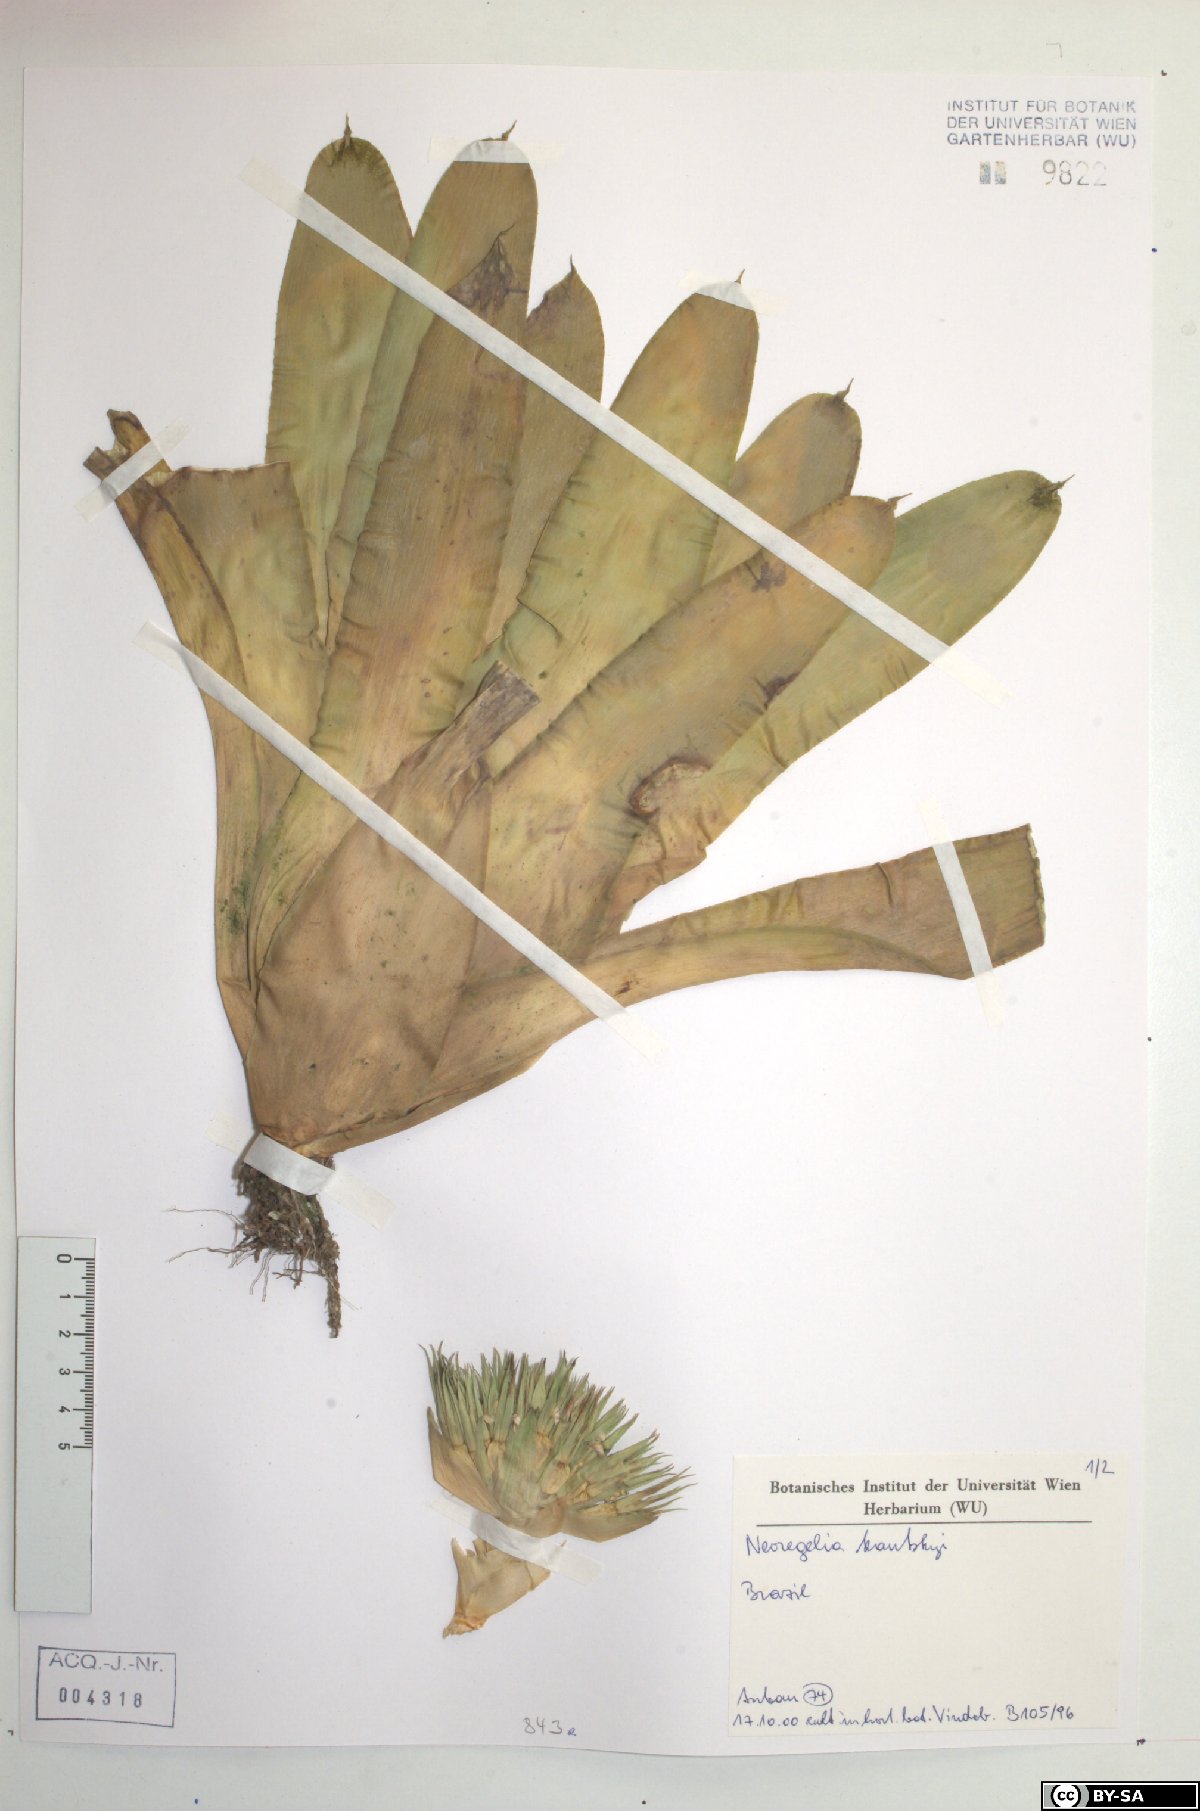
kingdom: Plantae
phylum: Tracheophyta
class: Liliopsida
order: Poales
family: Bromeliaceae
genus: Neoregelia
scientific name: Neoregelia kautskyi
